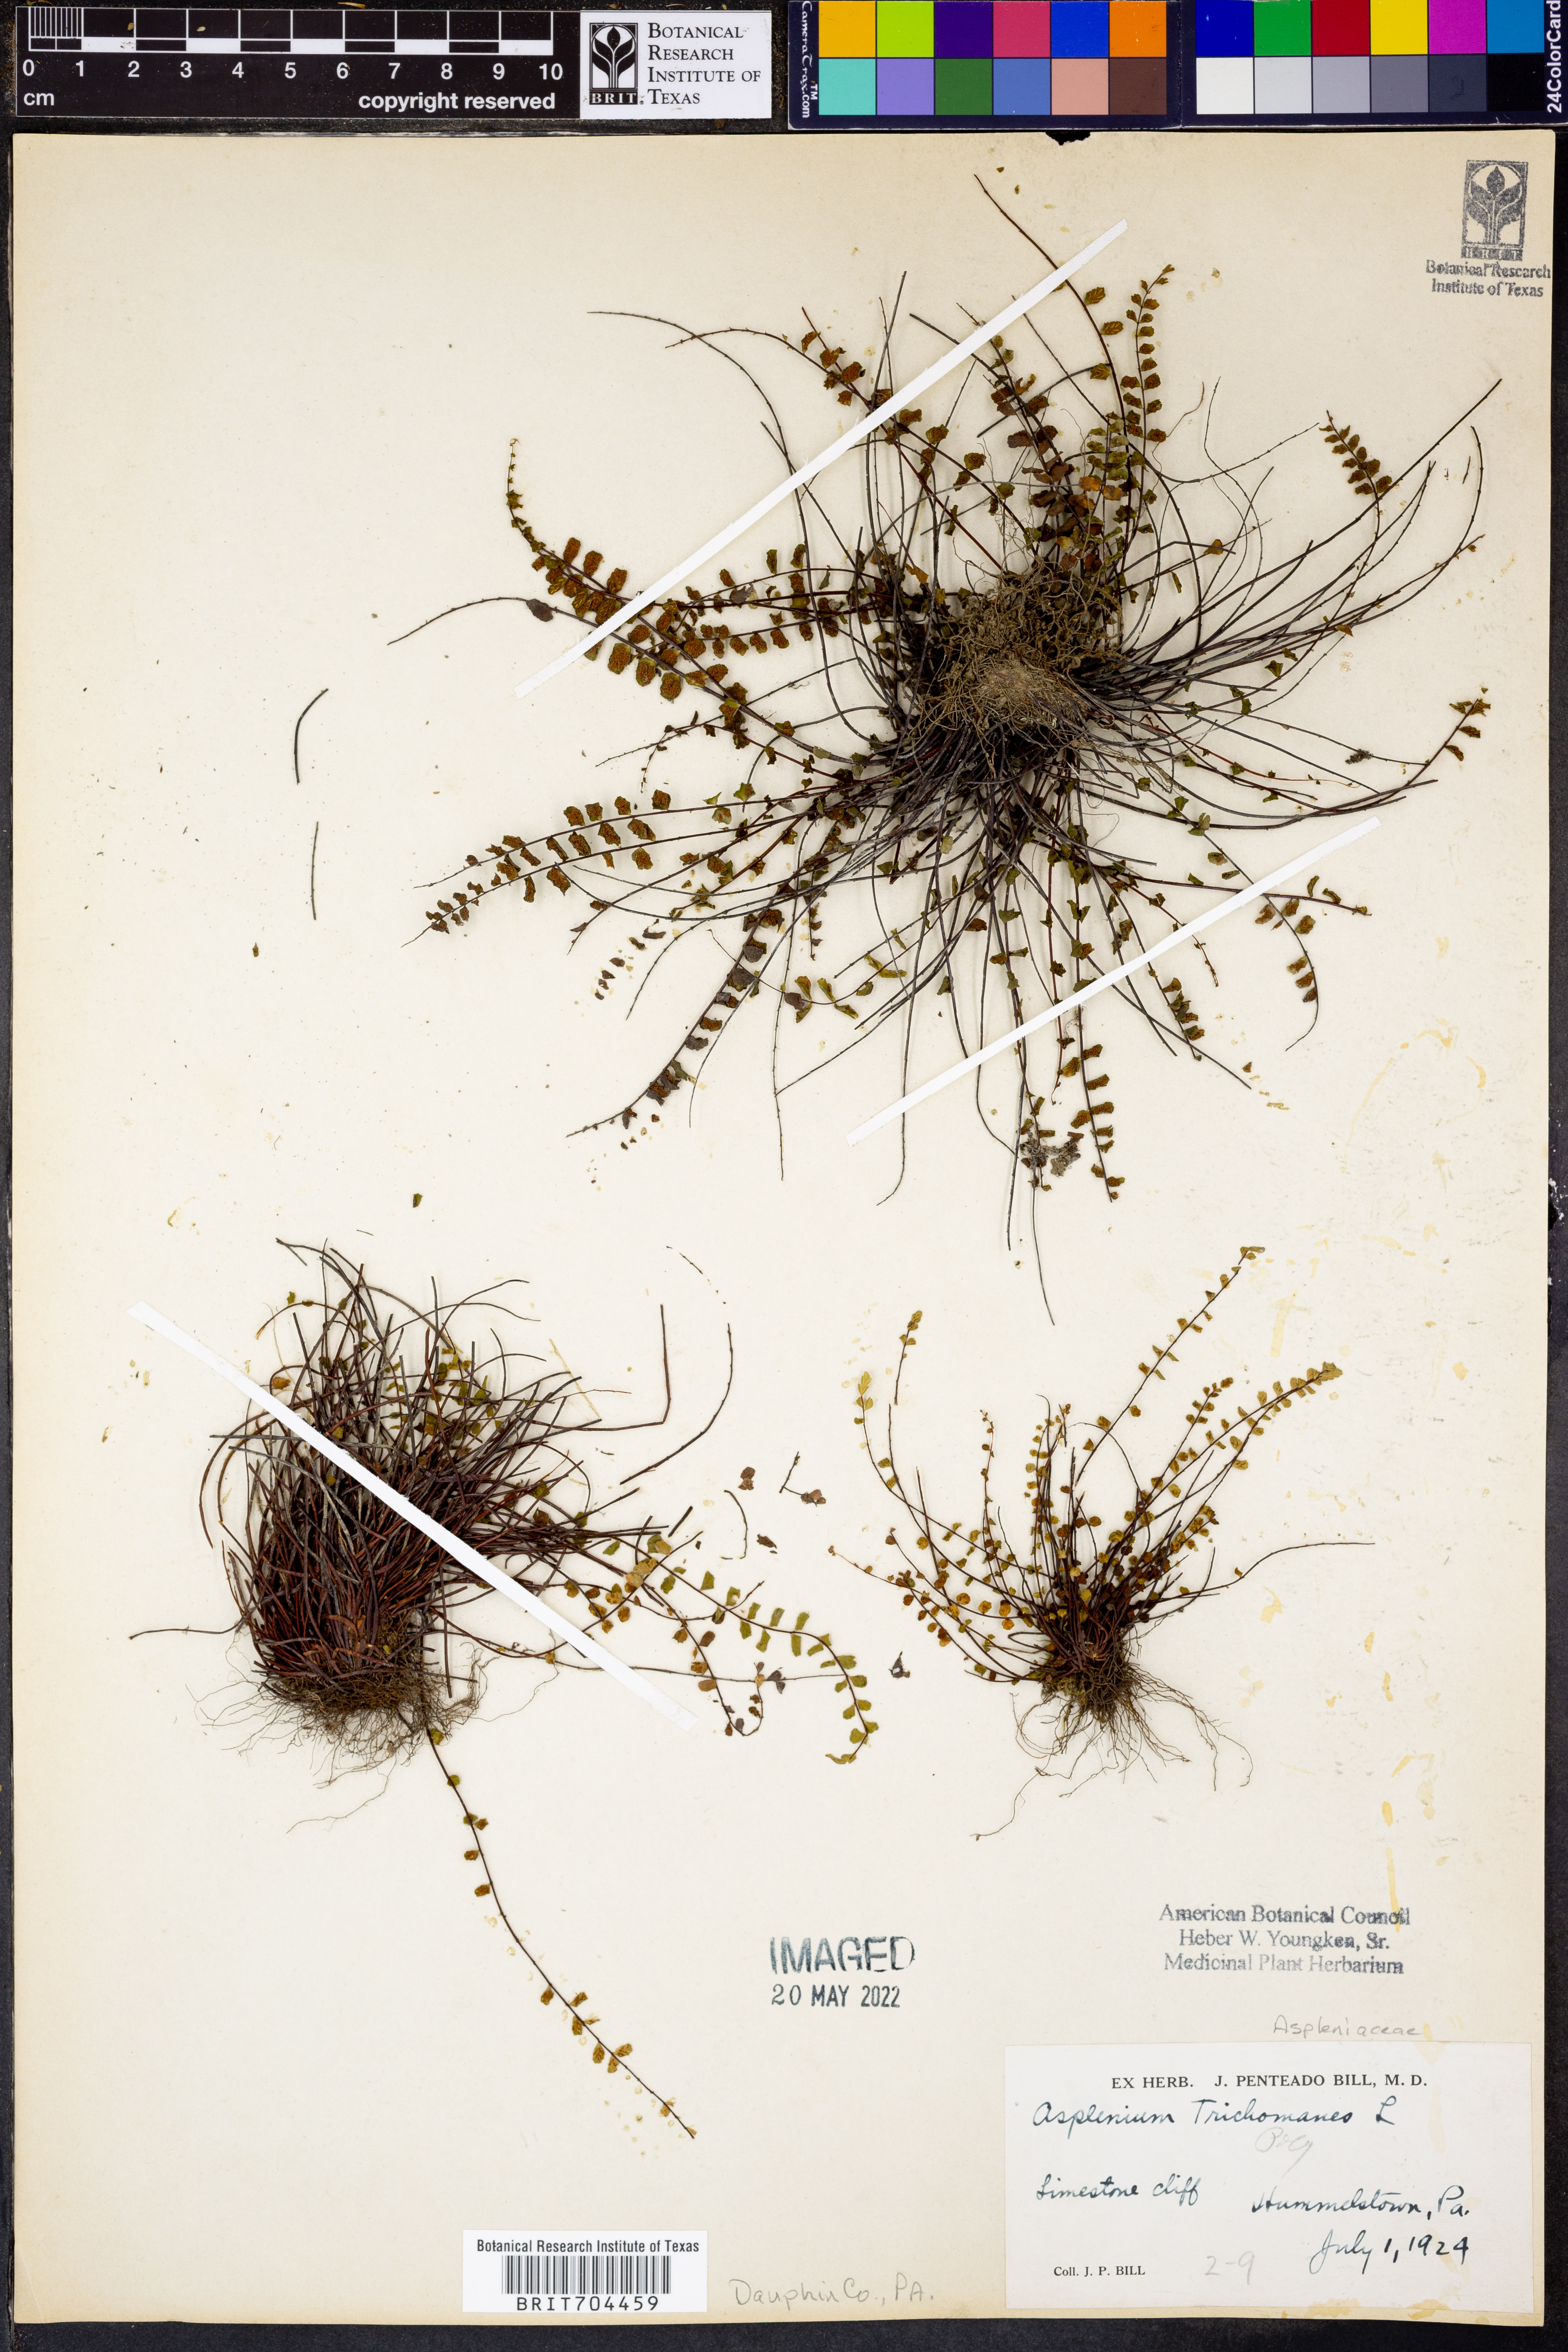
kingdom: Plantae
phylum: Tracheophyta
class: Polypodiopsida
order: Polypodiales
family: Aspleniaceae
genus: Asplenium
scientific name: Asplenium trichomanes
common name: Maidenhair spleenwort
